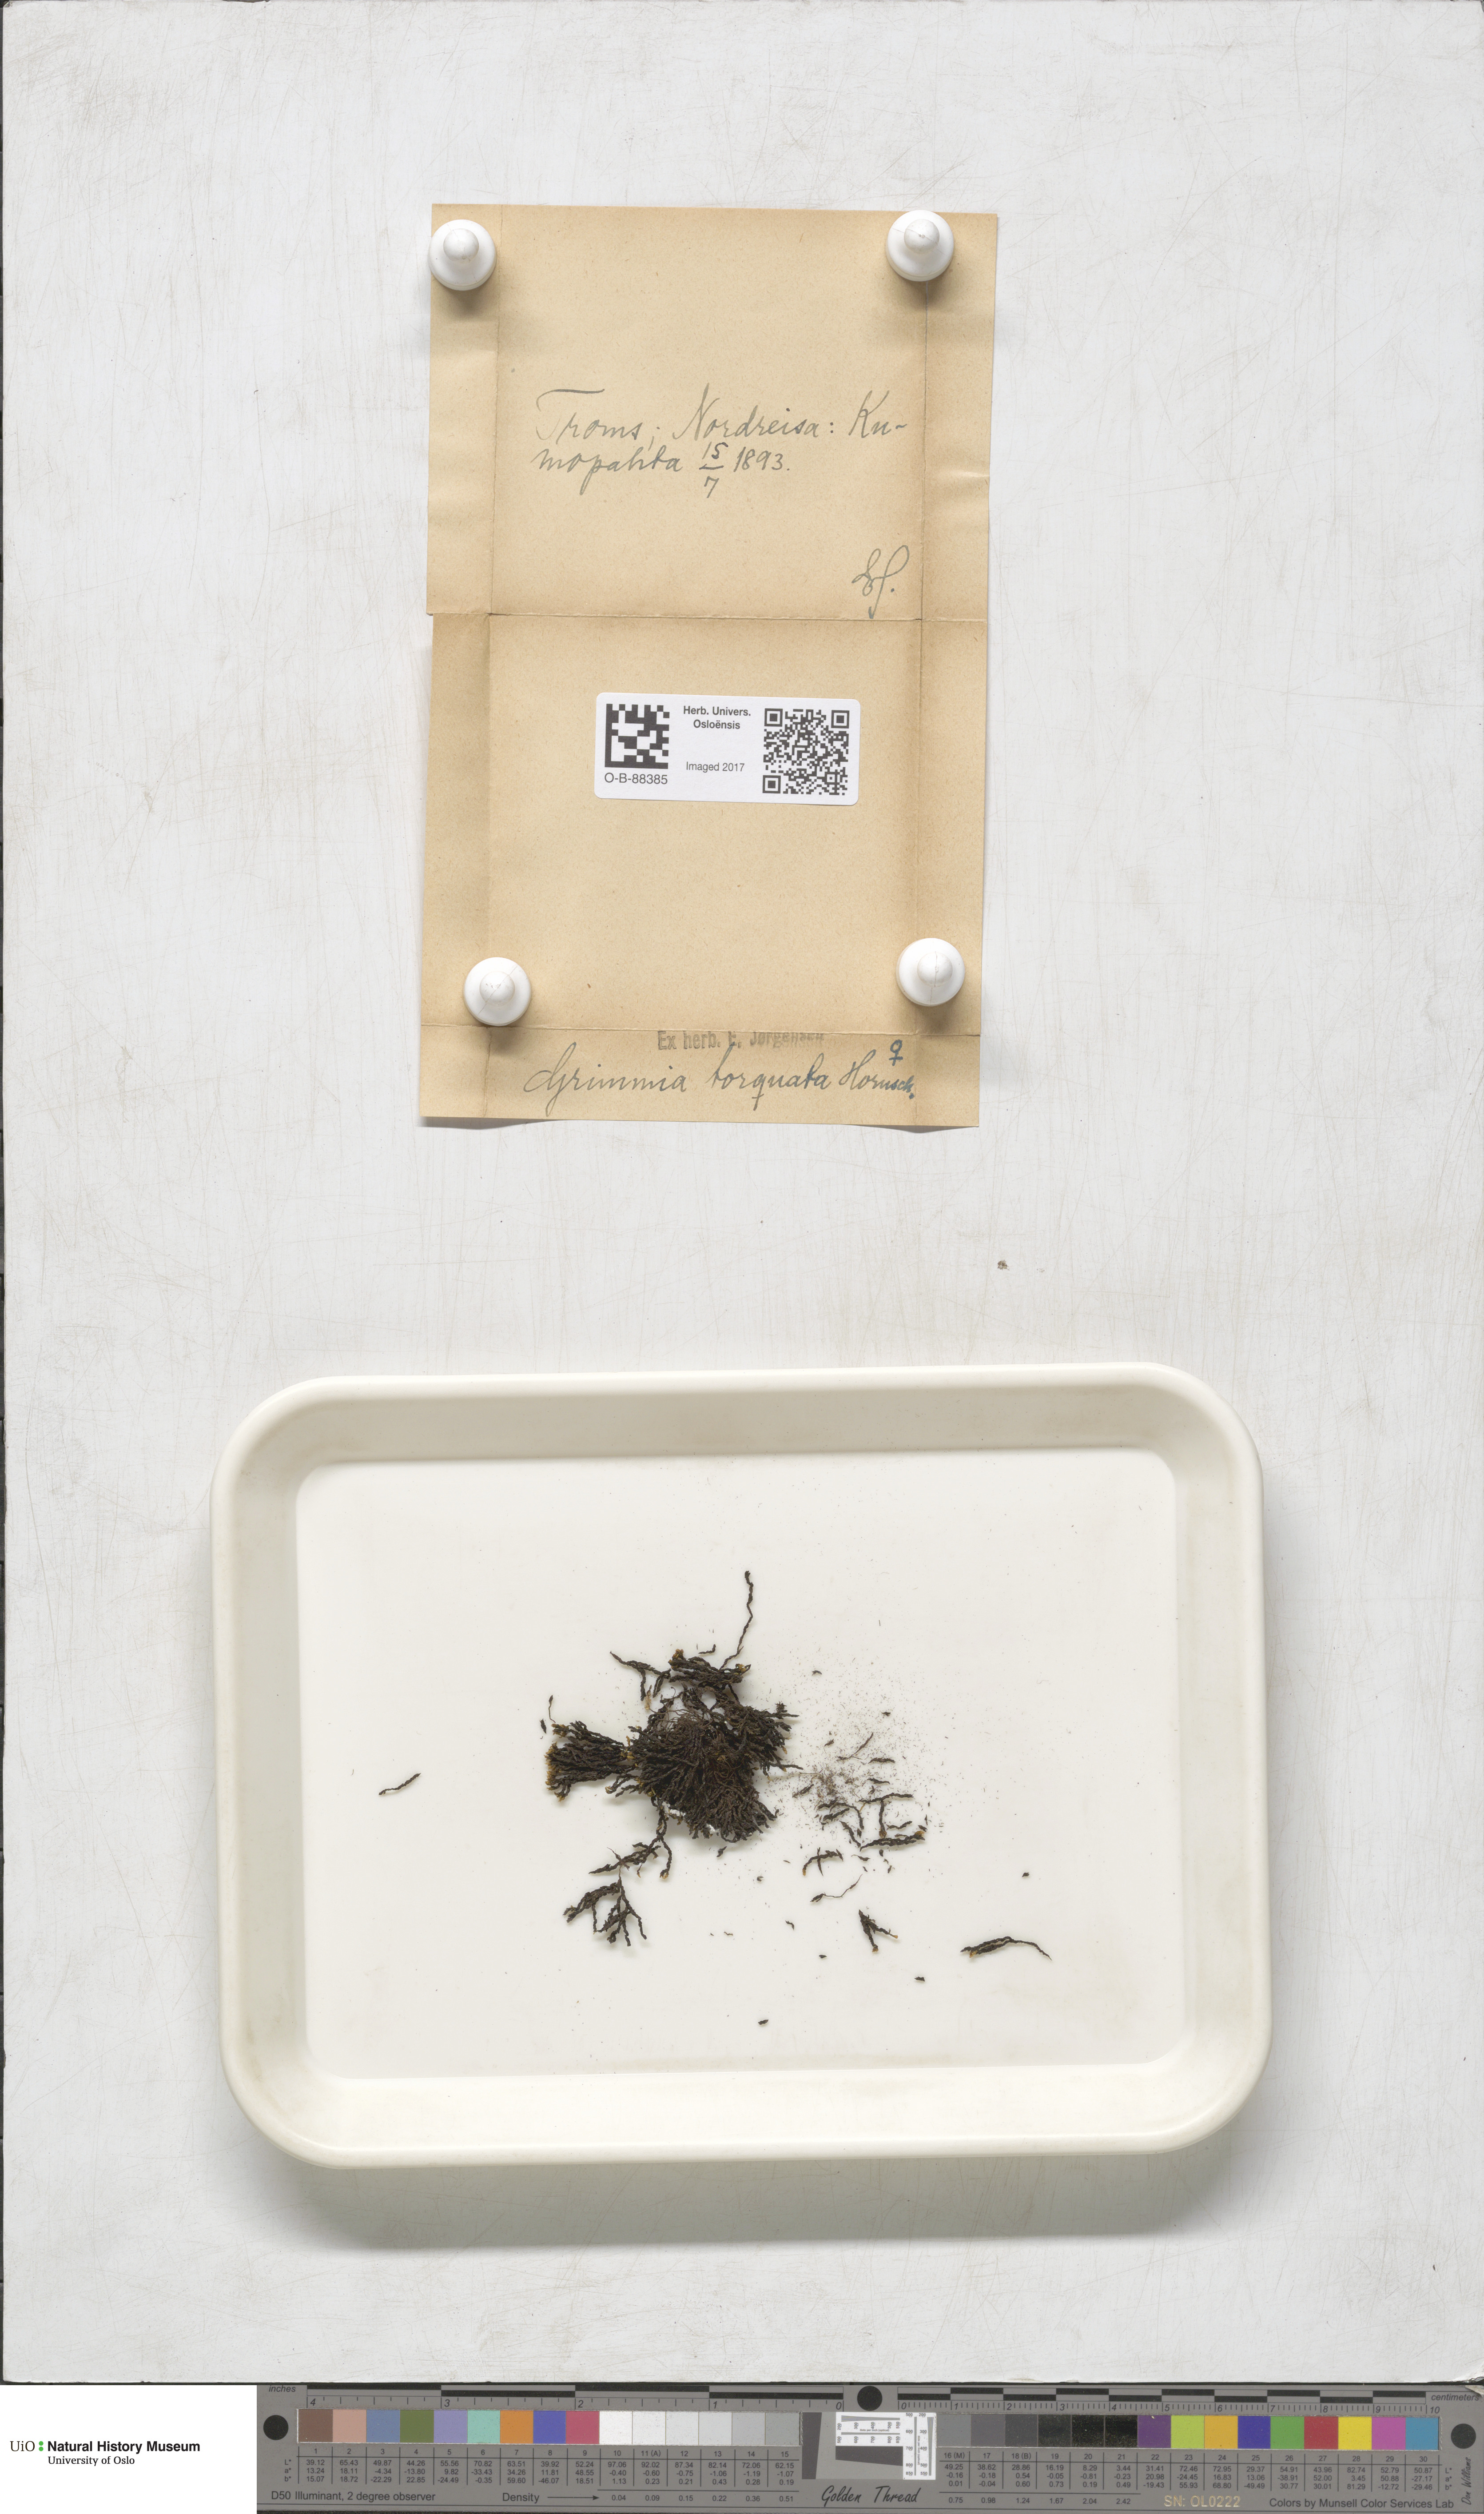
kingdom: Plantae
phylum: Bryophyta
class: Bryopsida
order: Grimmiales
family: Grimmiaceae
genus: Grimmia
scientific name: Grimmia torquata
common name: Twisted grimmia
